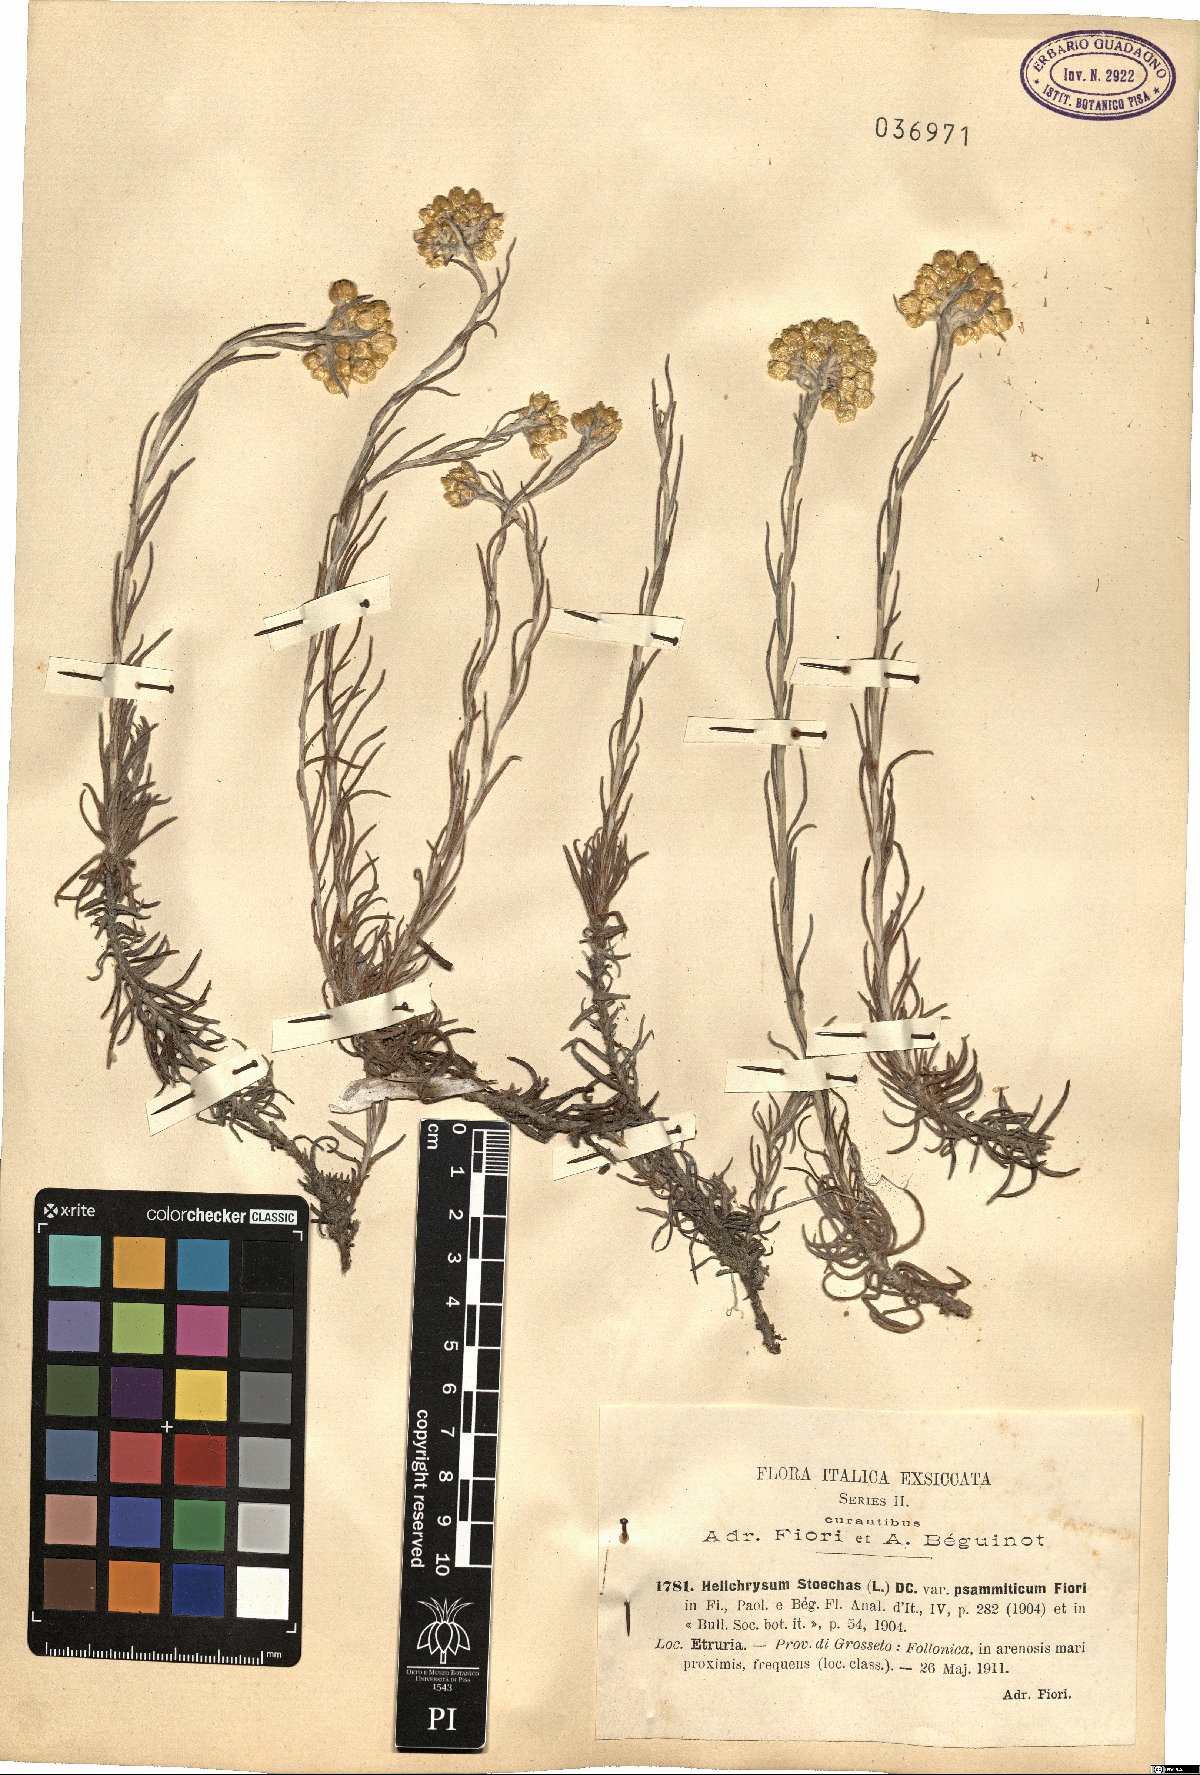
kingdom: Plantae
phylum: Tracheophyta
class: Magnoliopsida
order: Asterales
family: Asteraceae
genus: Helichrysum
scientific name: Helichrysum stoechas
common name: Goldilocks
